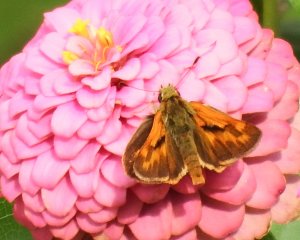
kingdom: Animalia
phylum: Arthropoda
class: Insecta
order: Lepidoptera
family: Hesperiidae
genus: Ochlodes
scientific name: Ochlodes sylvanoides
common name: Woodland Skipper
